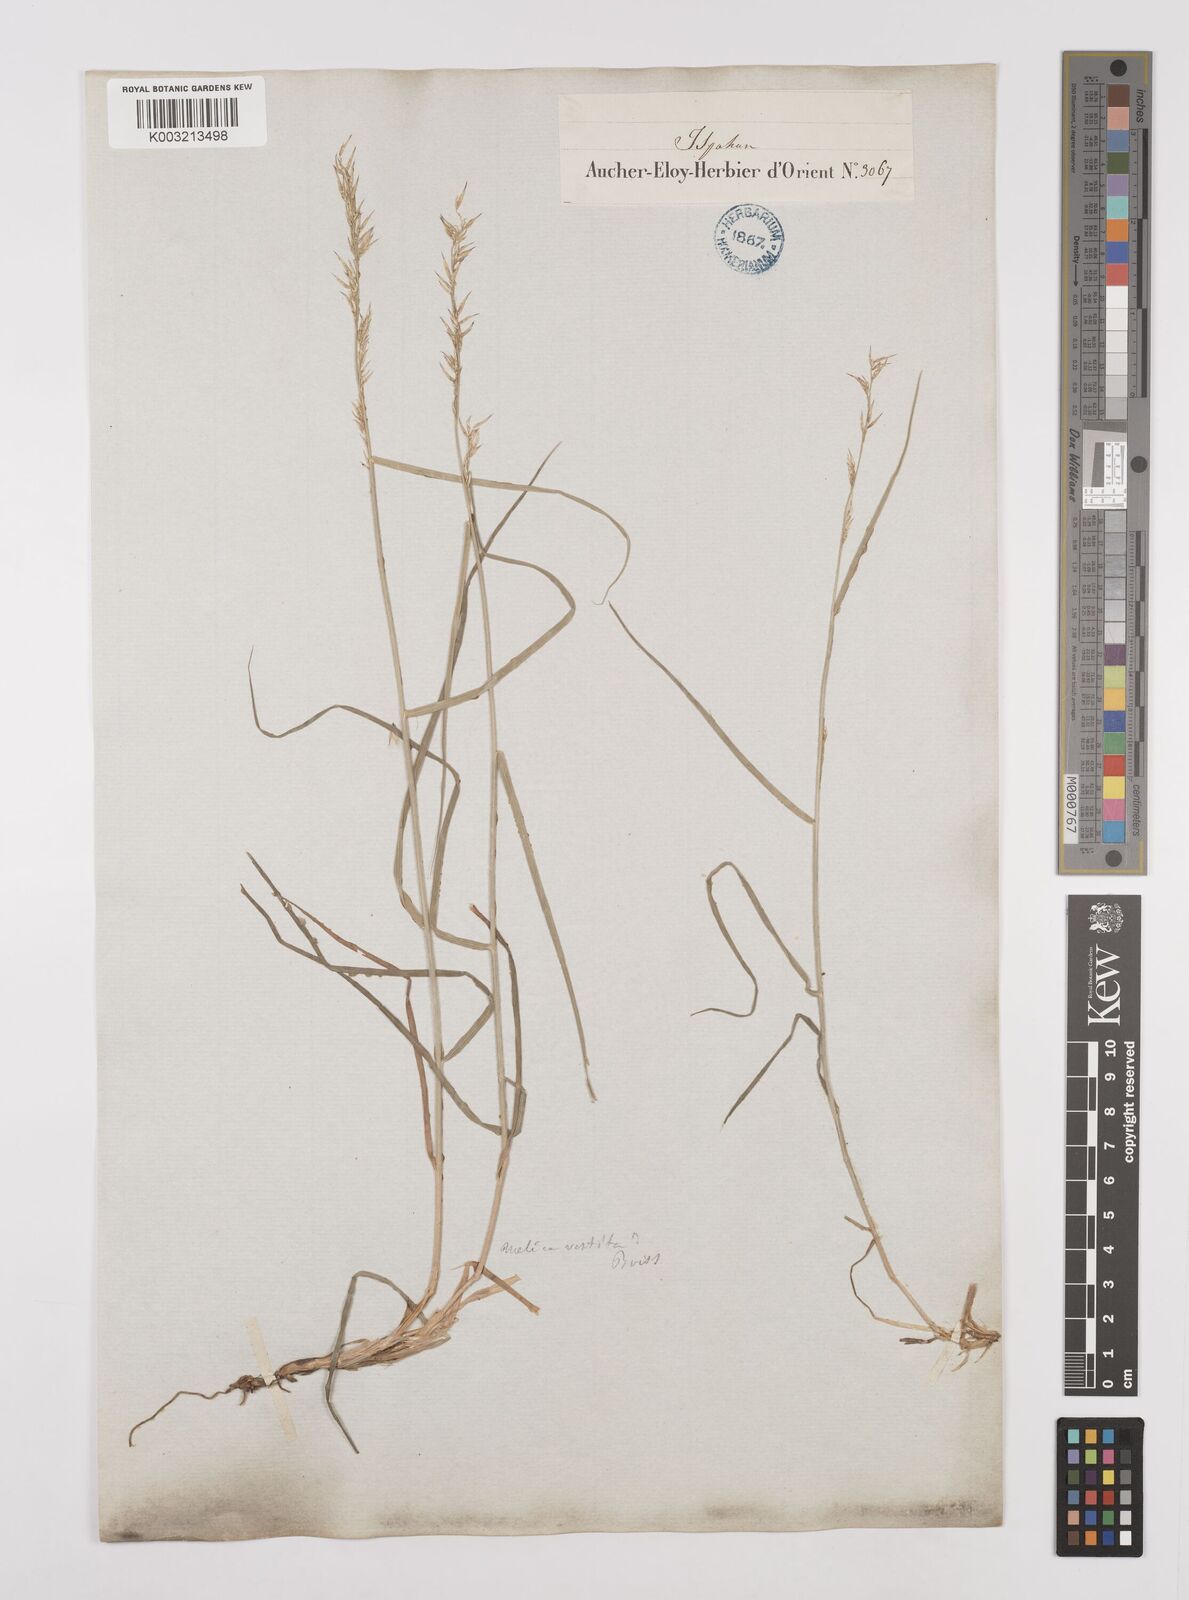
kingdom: Plantae
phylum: Tracheophyta
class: Liliopsida
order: Poales
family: Poaceae
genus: Melica
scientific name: Melica persica
